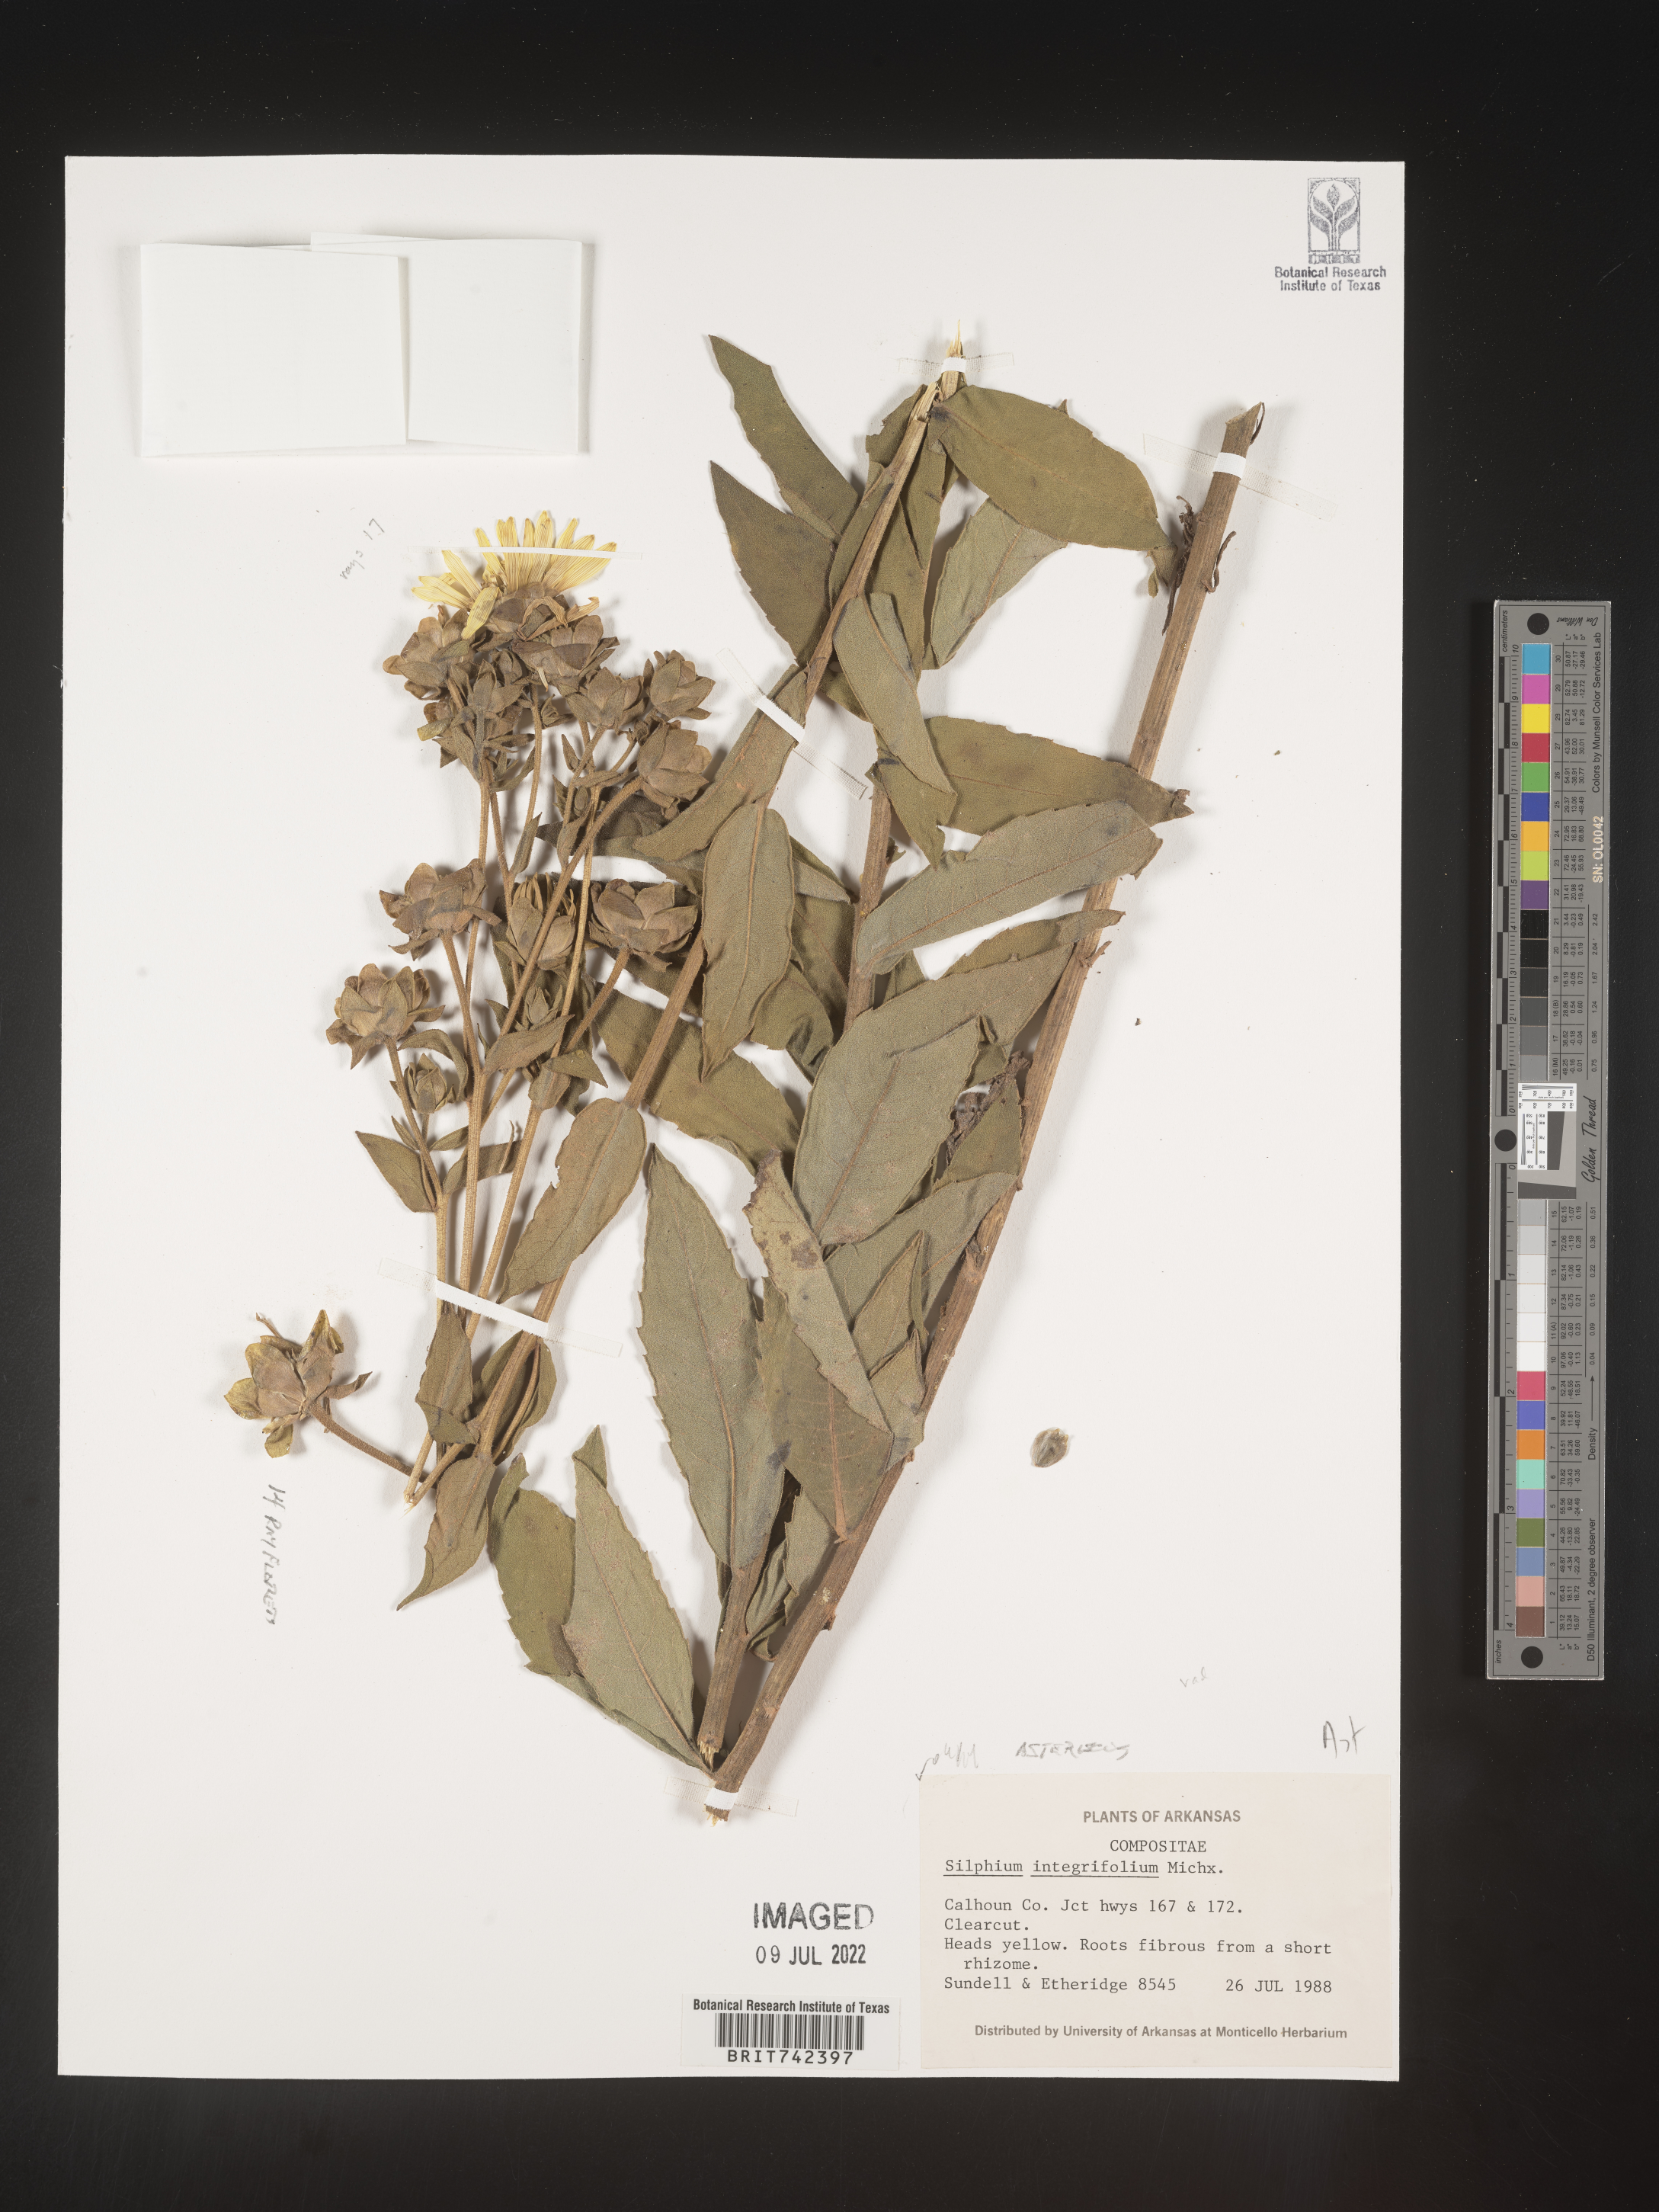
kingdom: Plantae
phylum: Tracheophyta
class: Magnoliopsida
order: Asterales
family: Asteraceae
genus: Silphium
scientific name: Silphium radula
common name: Roughleaf rosinweed
